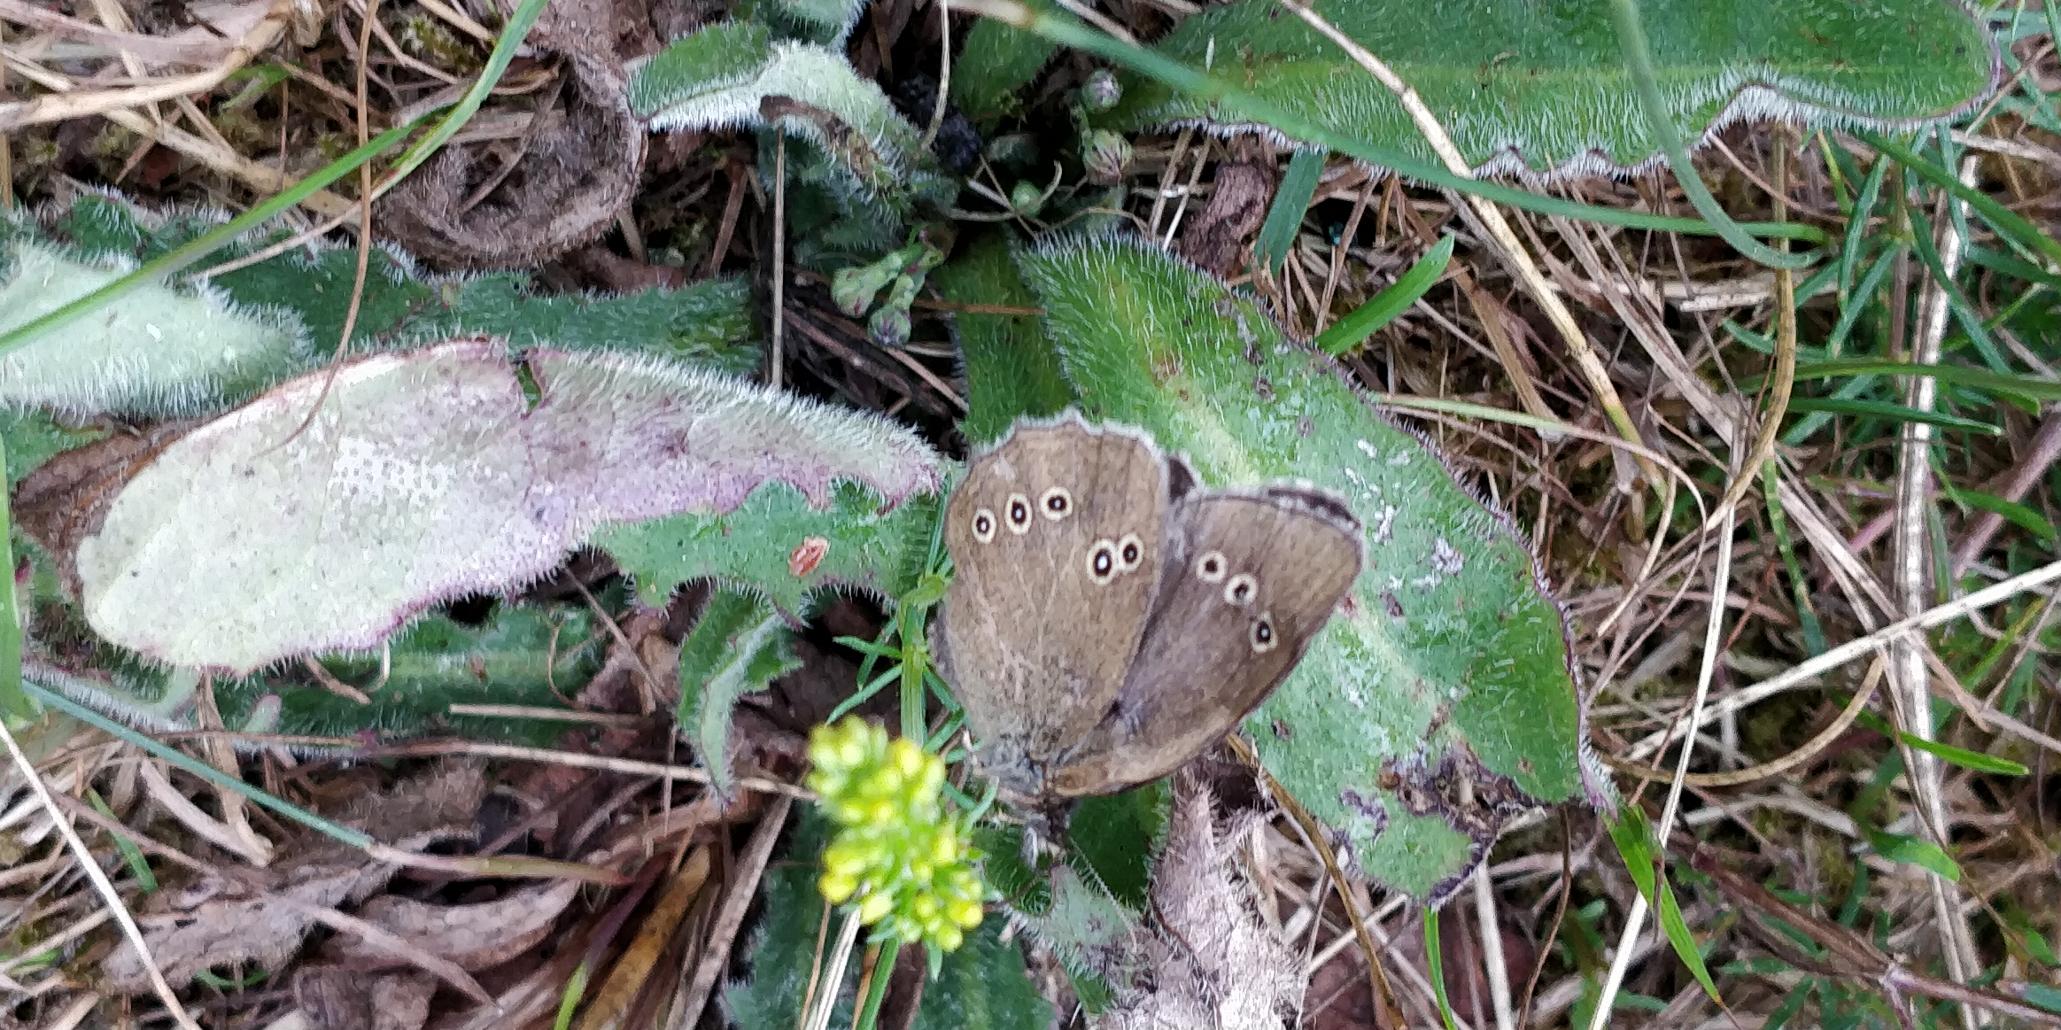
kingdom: Animalia
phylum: Arthropoda
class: Insecta
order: Lepidoptera
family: Nymphalidae
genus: Aphantopus
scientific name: Aphantopus hyperantus
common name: Engrandøje
